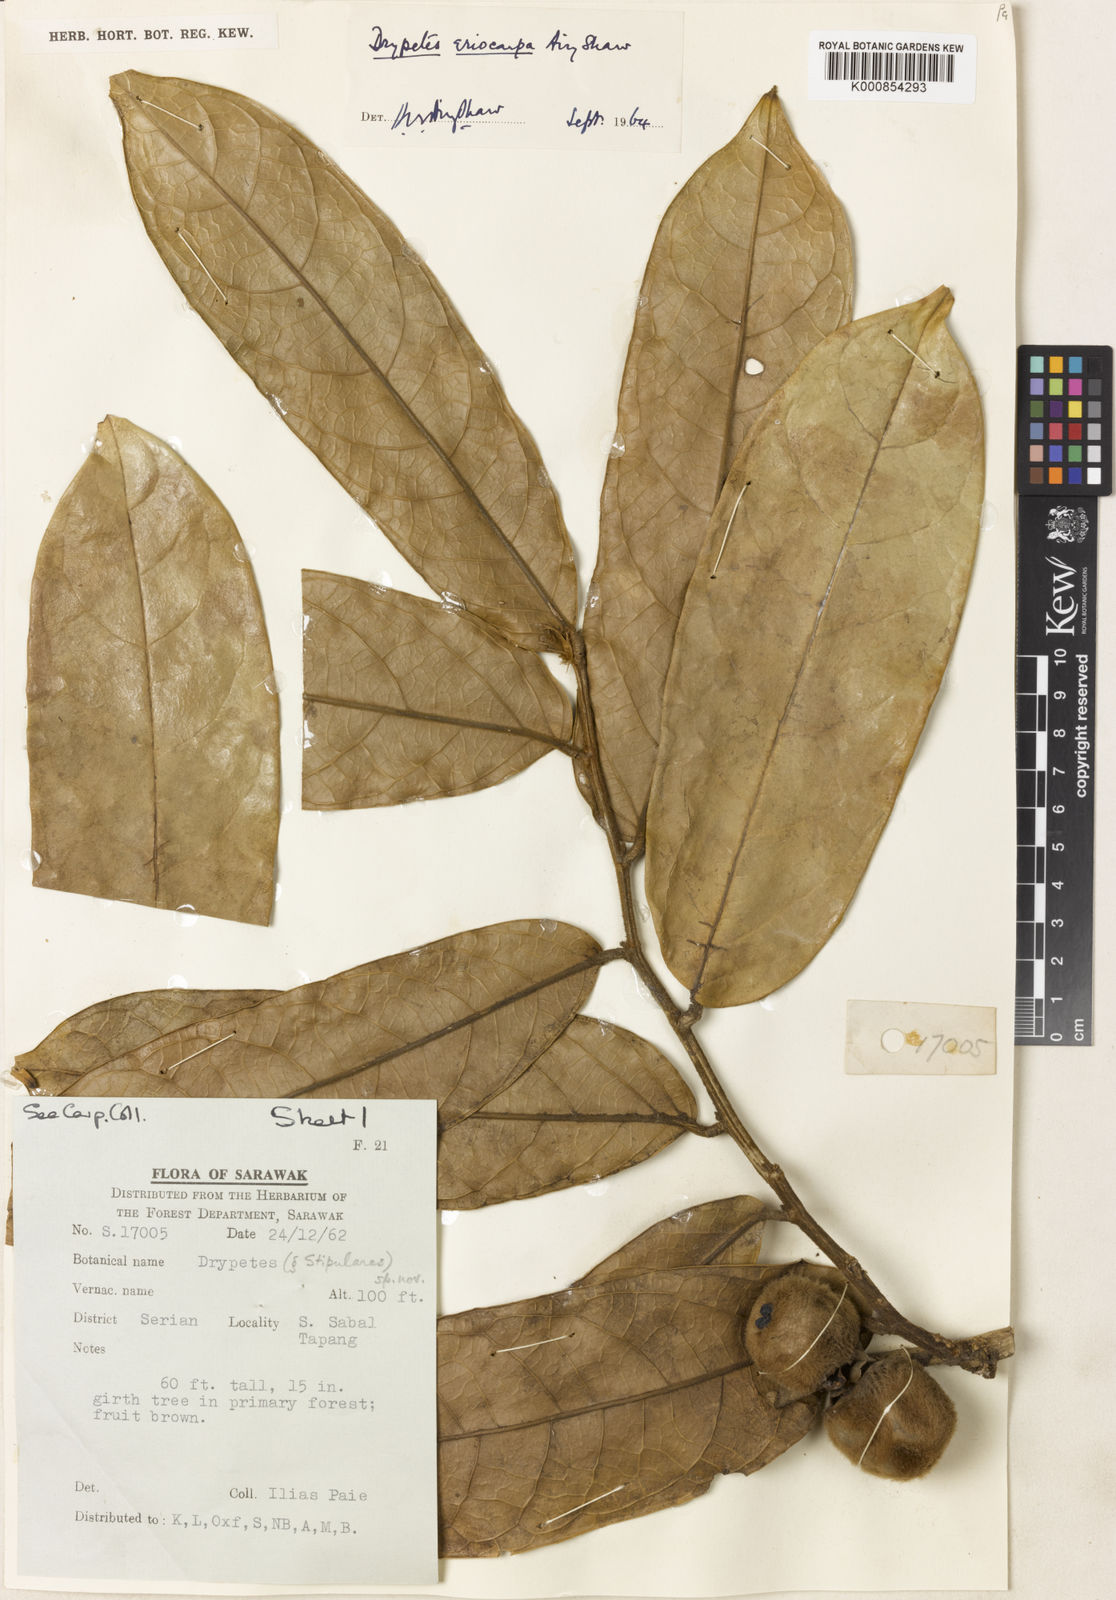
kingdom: Plantae
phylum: Tracheophyta
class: Magnoliopsida
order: Malpighiales
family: Putranjivaceae
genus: Drypetes
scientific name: Drypetes eriocarpa
